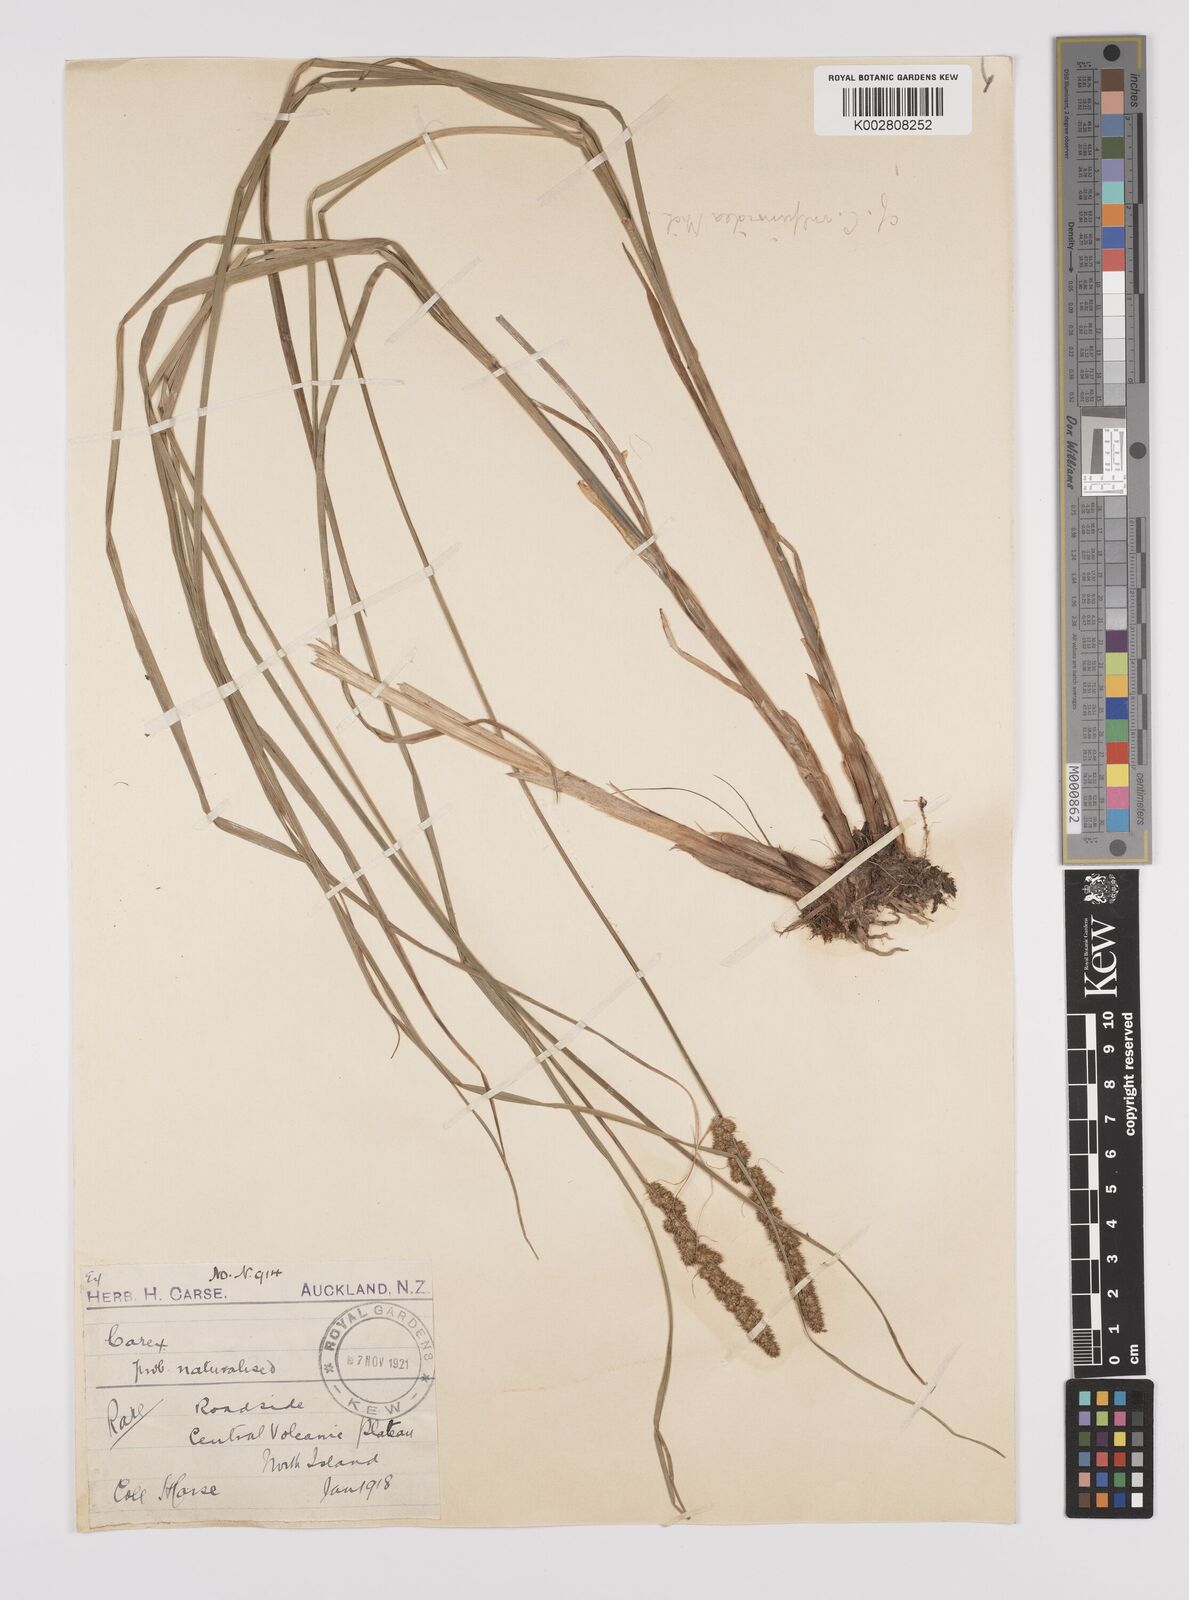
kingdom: Plantae
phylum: Tracheophyta
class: Liliopsida
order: Poales
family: Cyperaceae
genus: Carex
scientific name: Carex vulpinoidea
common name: American fox-sedge
